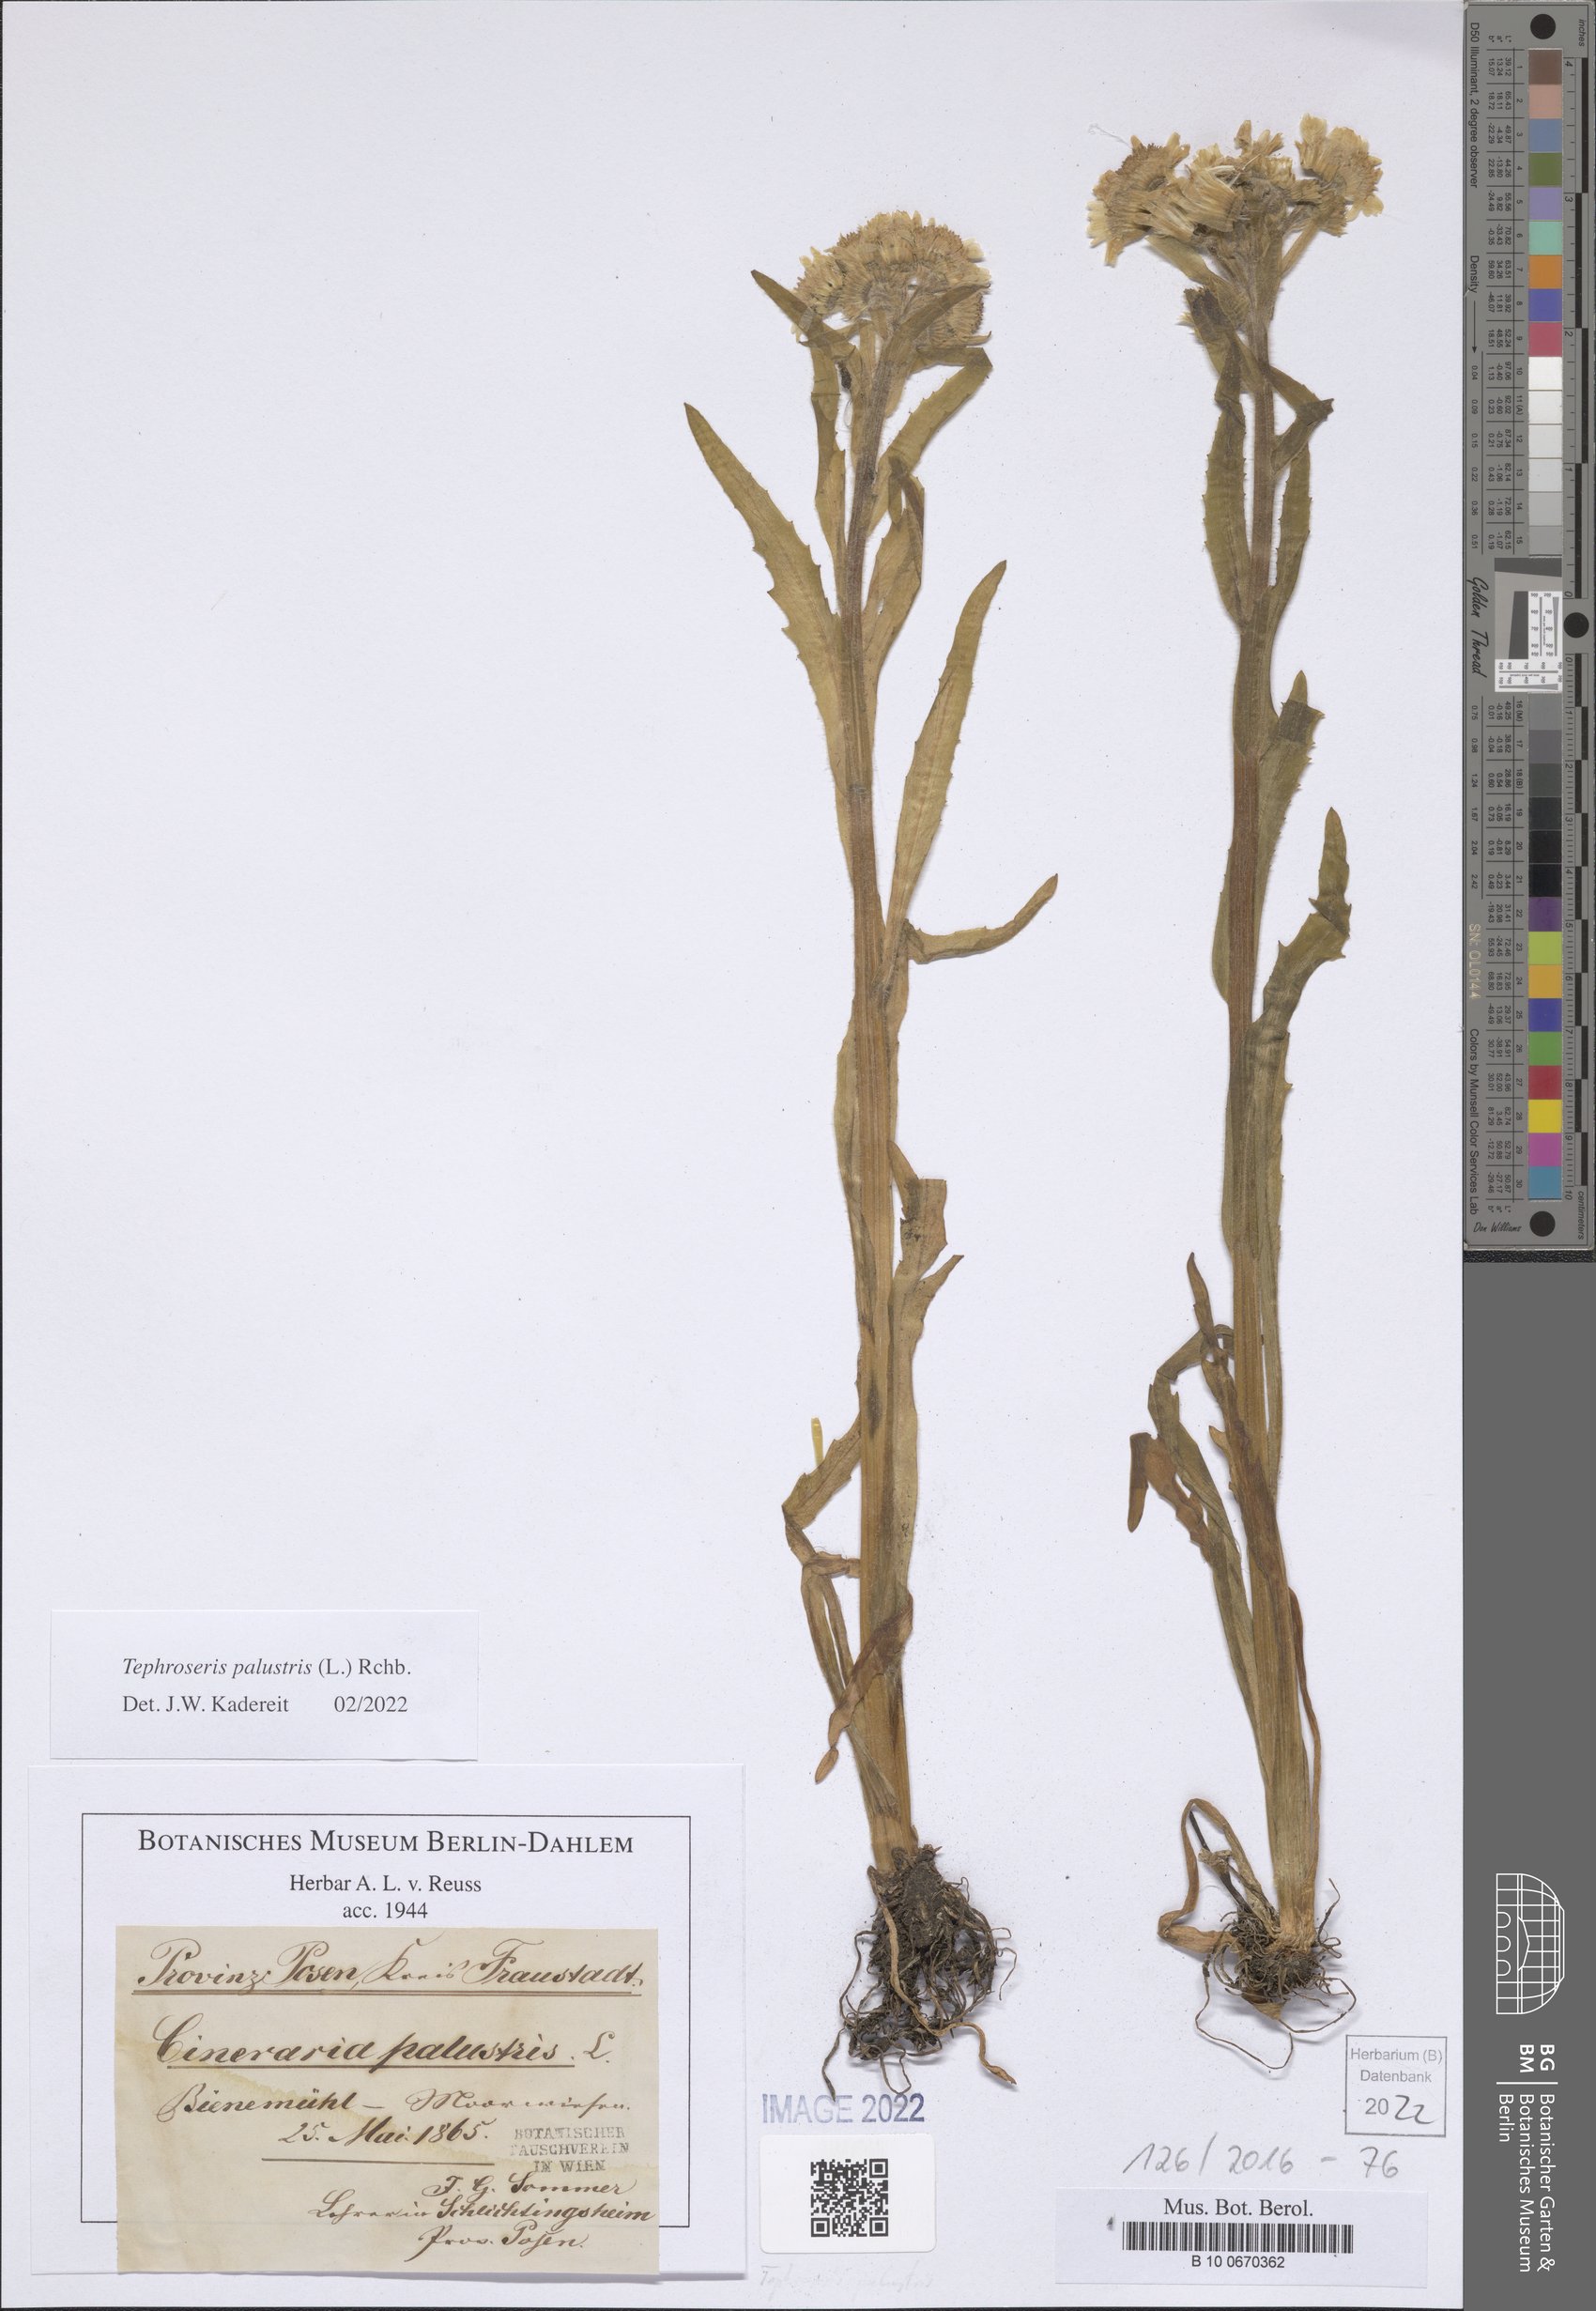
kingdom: Plantae
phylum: Tracheophyta
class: Magnoliopsida
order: Asterales
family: Asteraceae
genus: Tephroseris
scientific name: Tephroseris palustris
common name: Marsh fleawort
